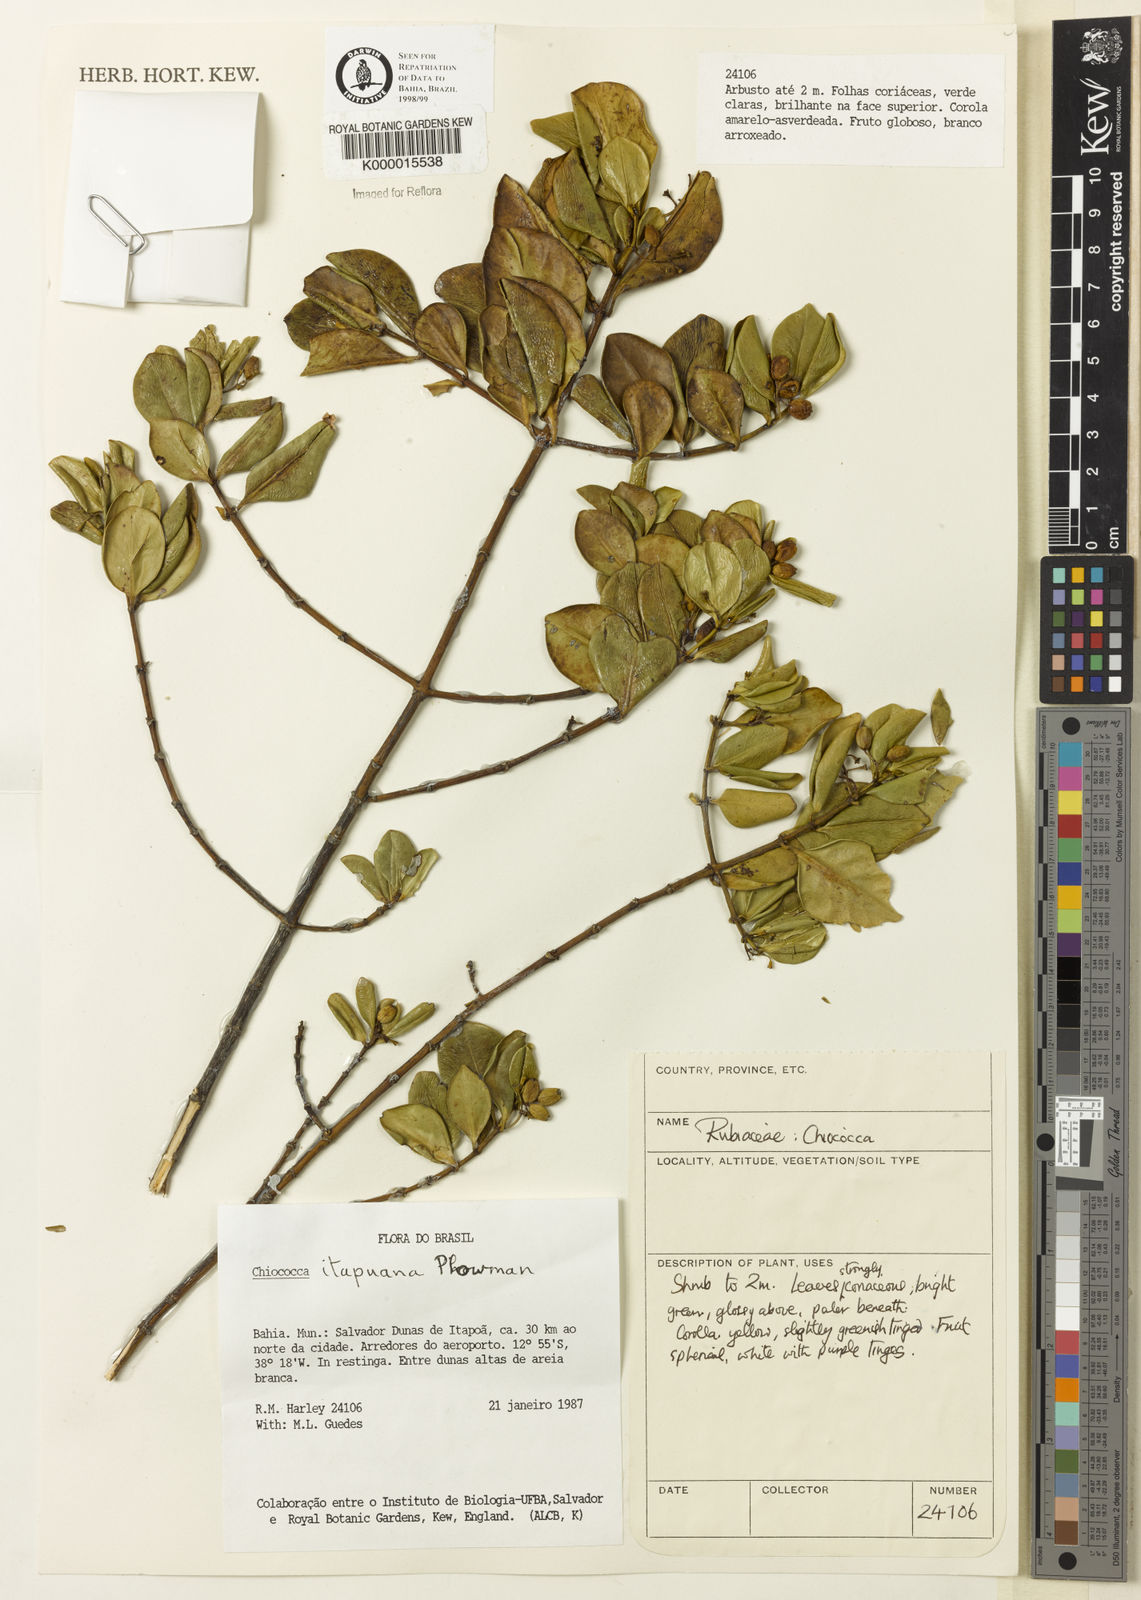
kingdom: Plantae
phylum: Tracheophyta
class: Magnoliopsida
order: Gentianales
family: Rubiaceae
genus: Chiococca
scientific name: Chiococca
